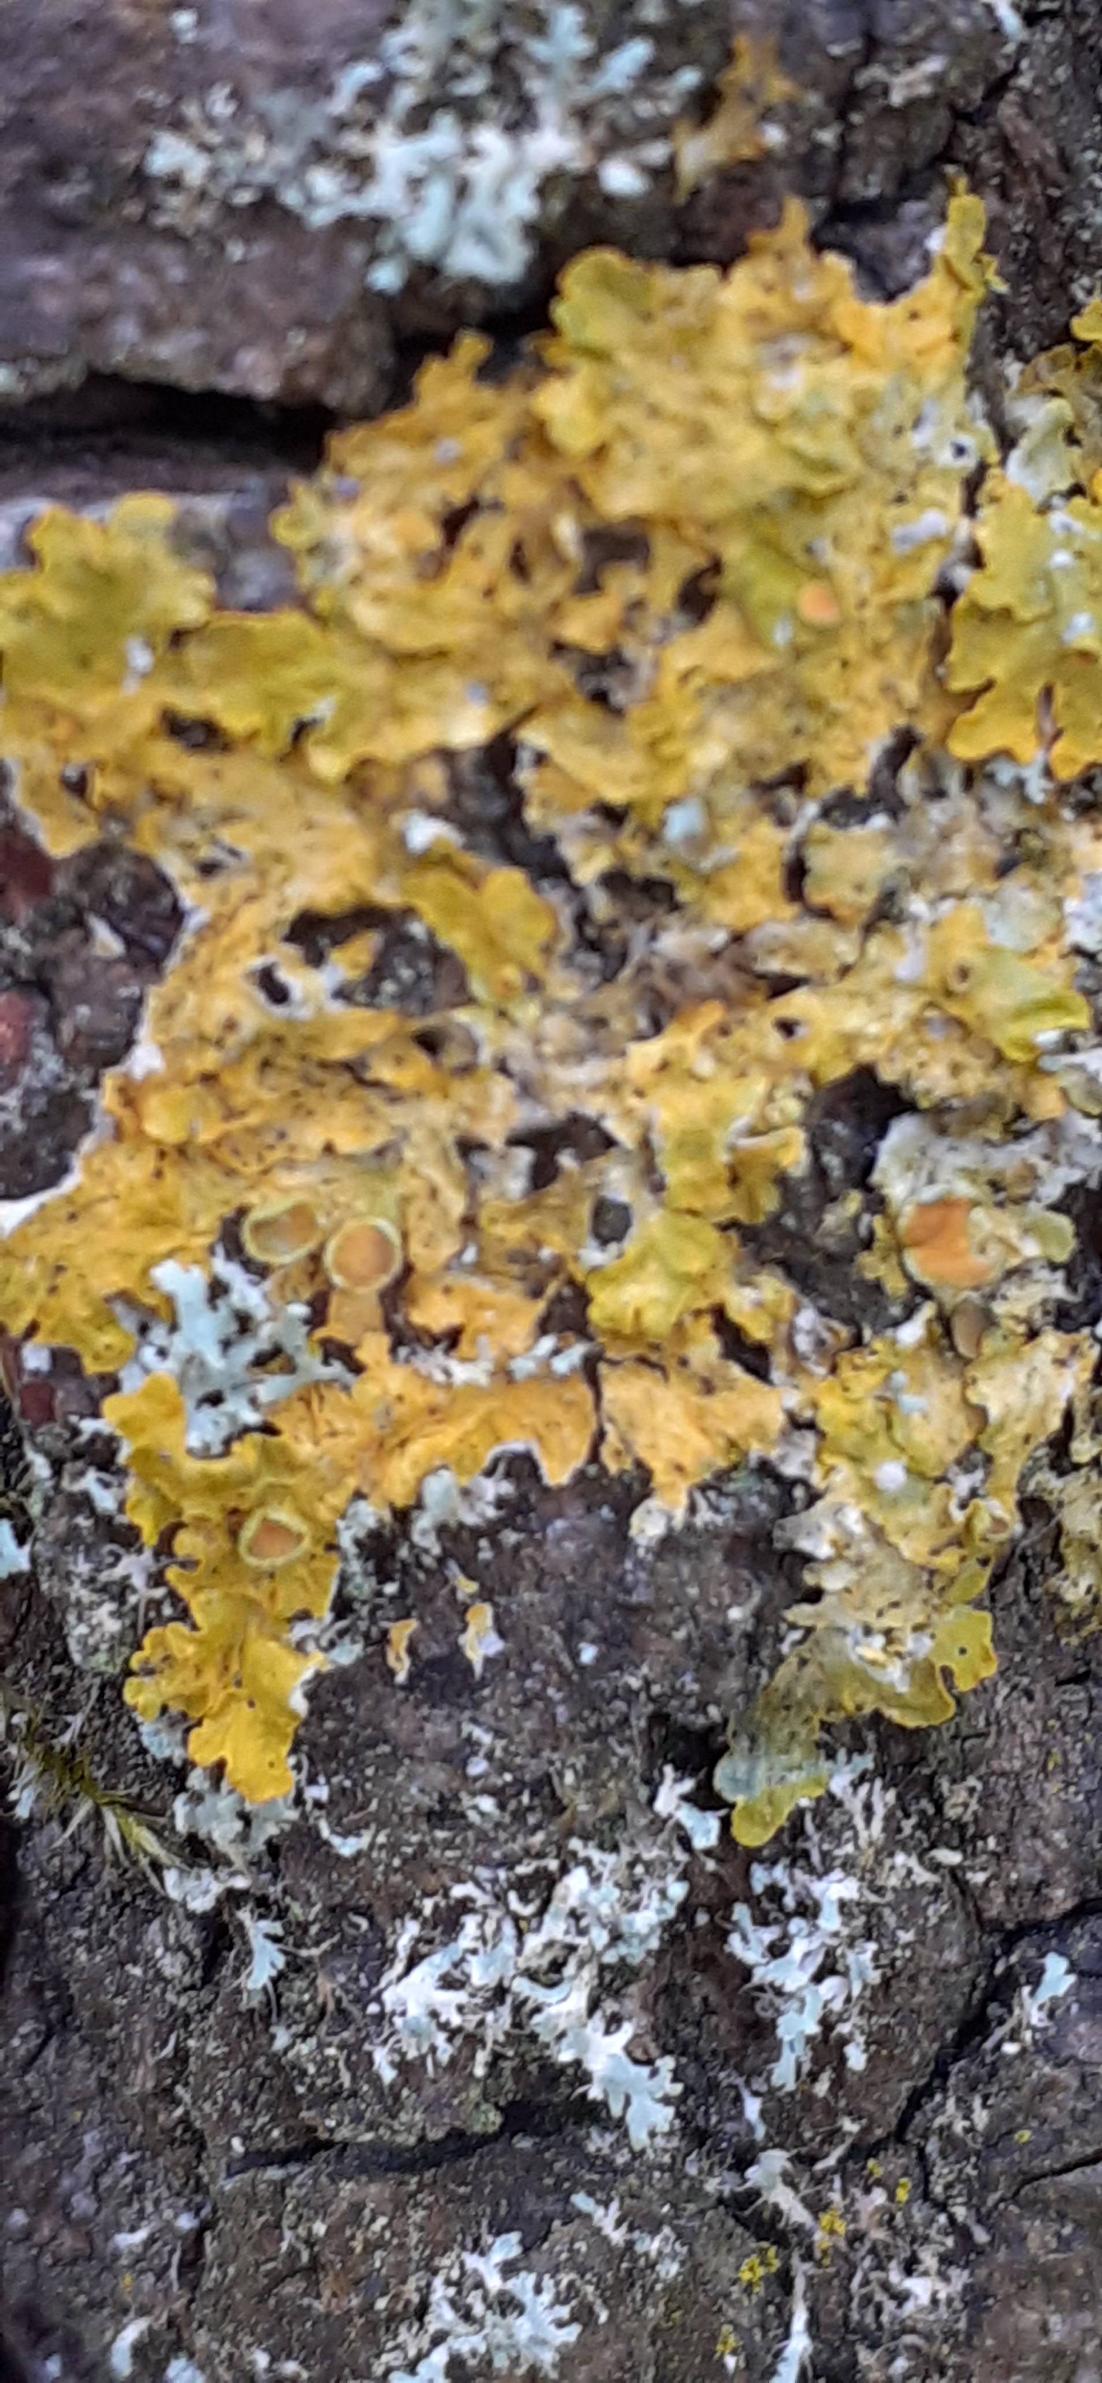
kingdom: Fungi
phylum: Ascomycota
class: Lecanoromycetes
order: Teloschistales
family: Teloschistaceae
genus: Xanthoria
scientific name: Xanthoria parietina
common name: Almindelig væggelav
